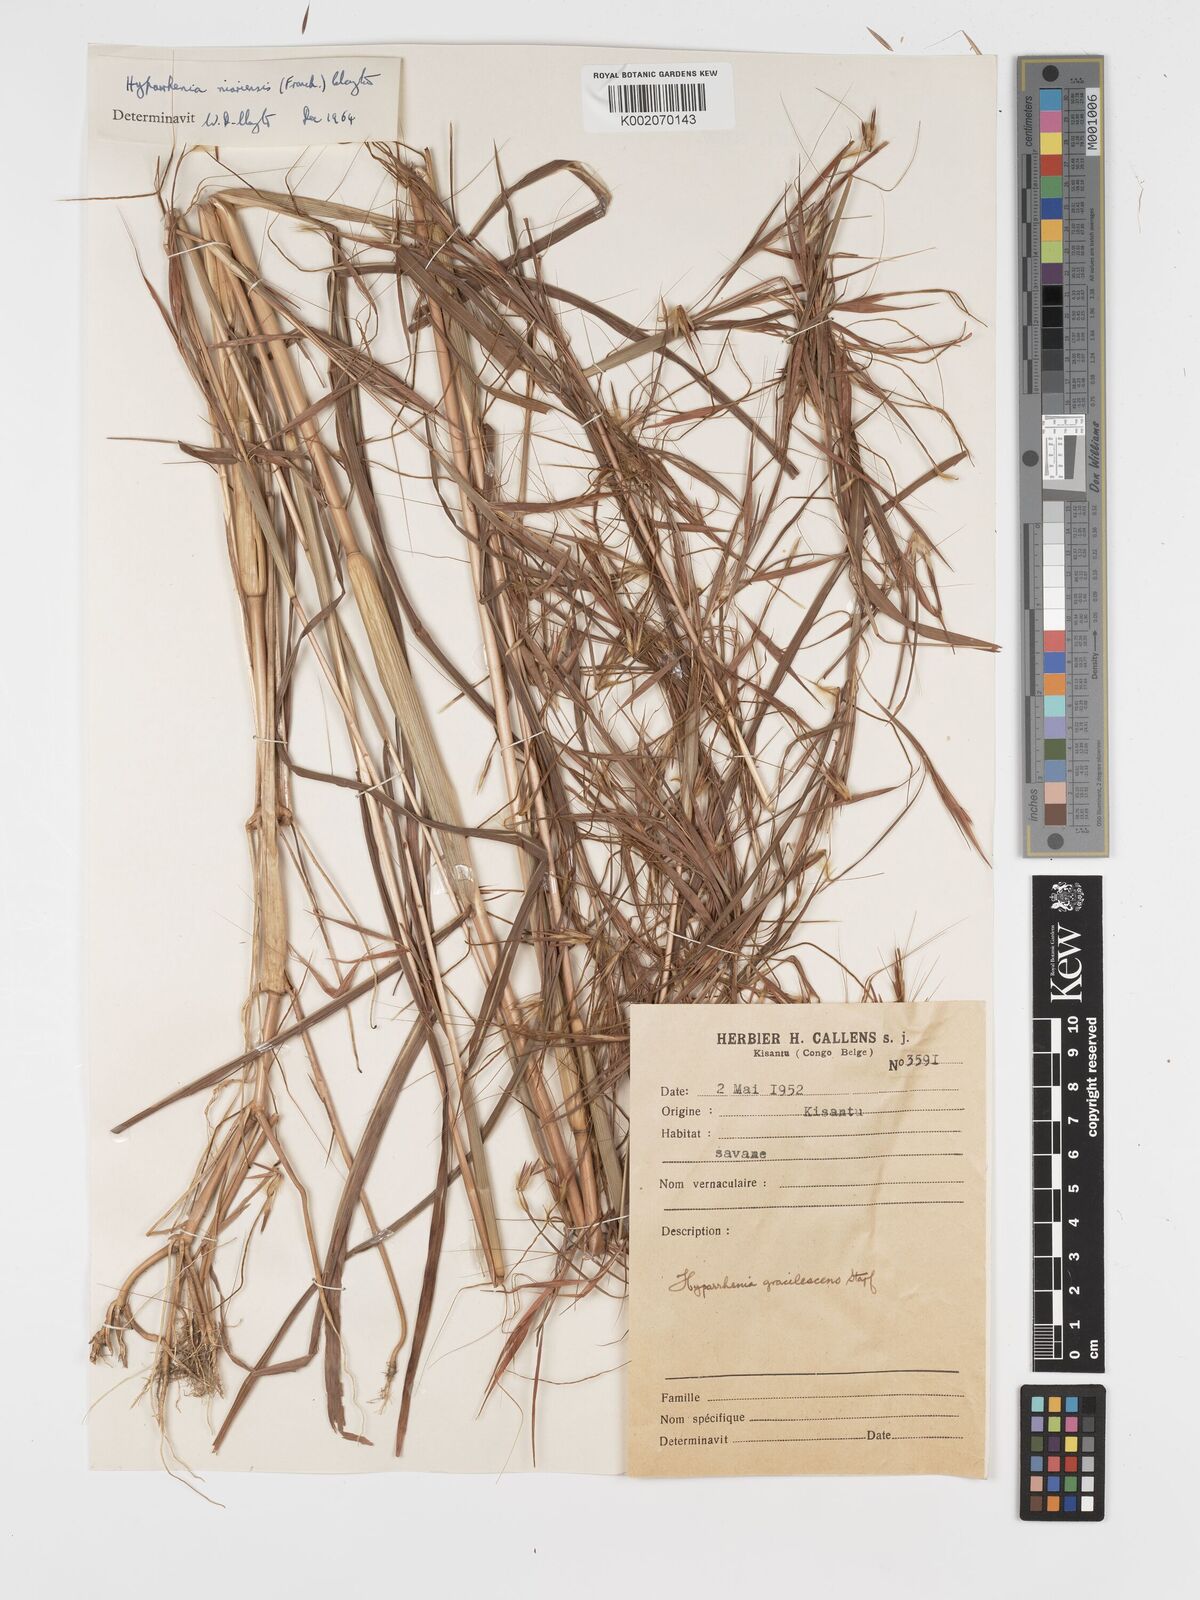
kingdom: Plantae
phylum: Tracheophyta
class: Liliopsida
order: Poales
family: Poaceae
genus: Hyparrhenia
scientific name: Hyparrhenia niariensis
